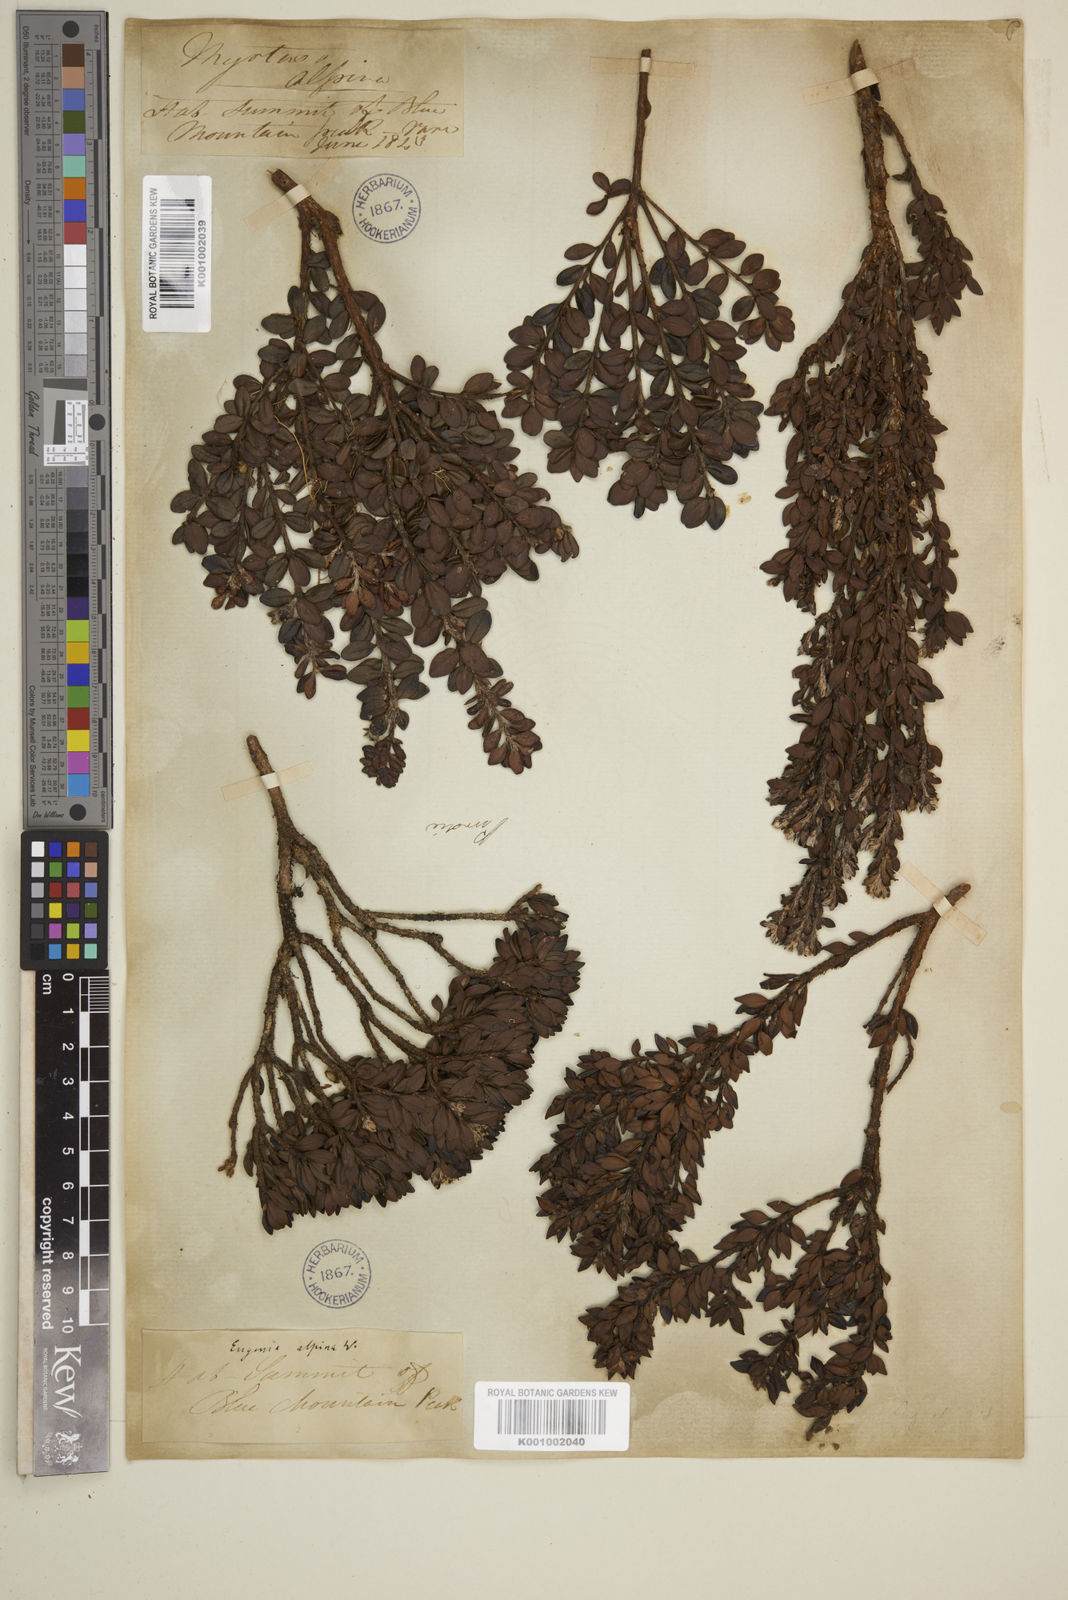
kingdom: Plantae
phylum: Tracheophyta
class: Magnoliopsida
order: Myrtales
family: Myrtaceae
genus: Eugenia
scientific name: Eugenia alpina
